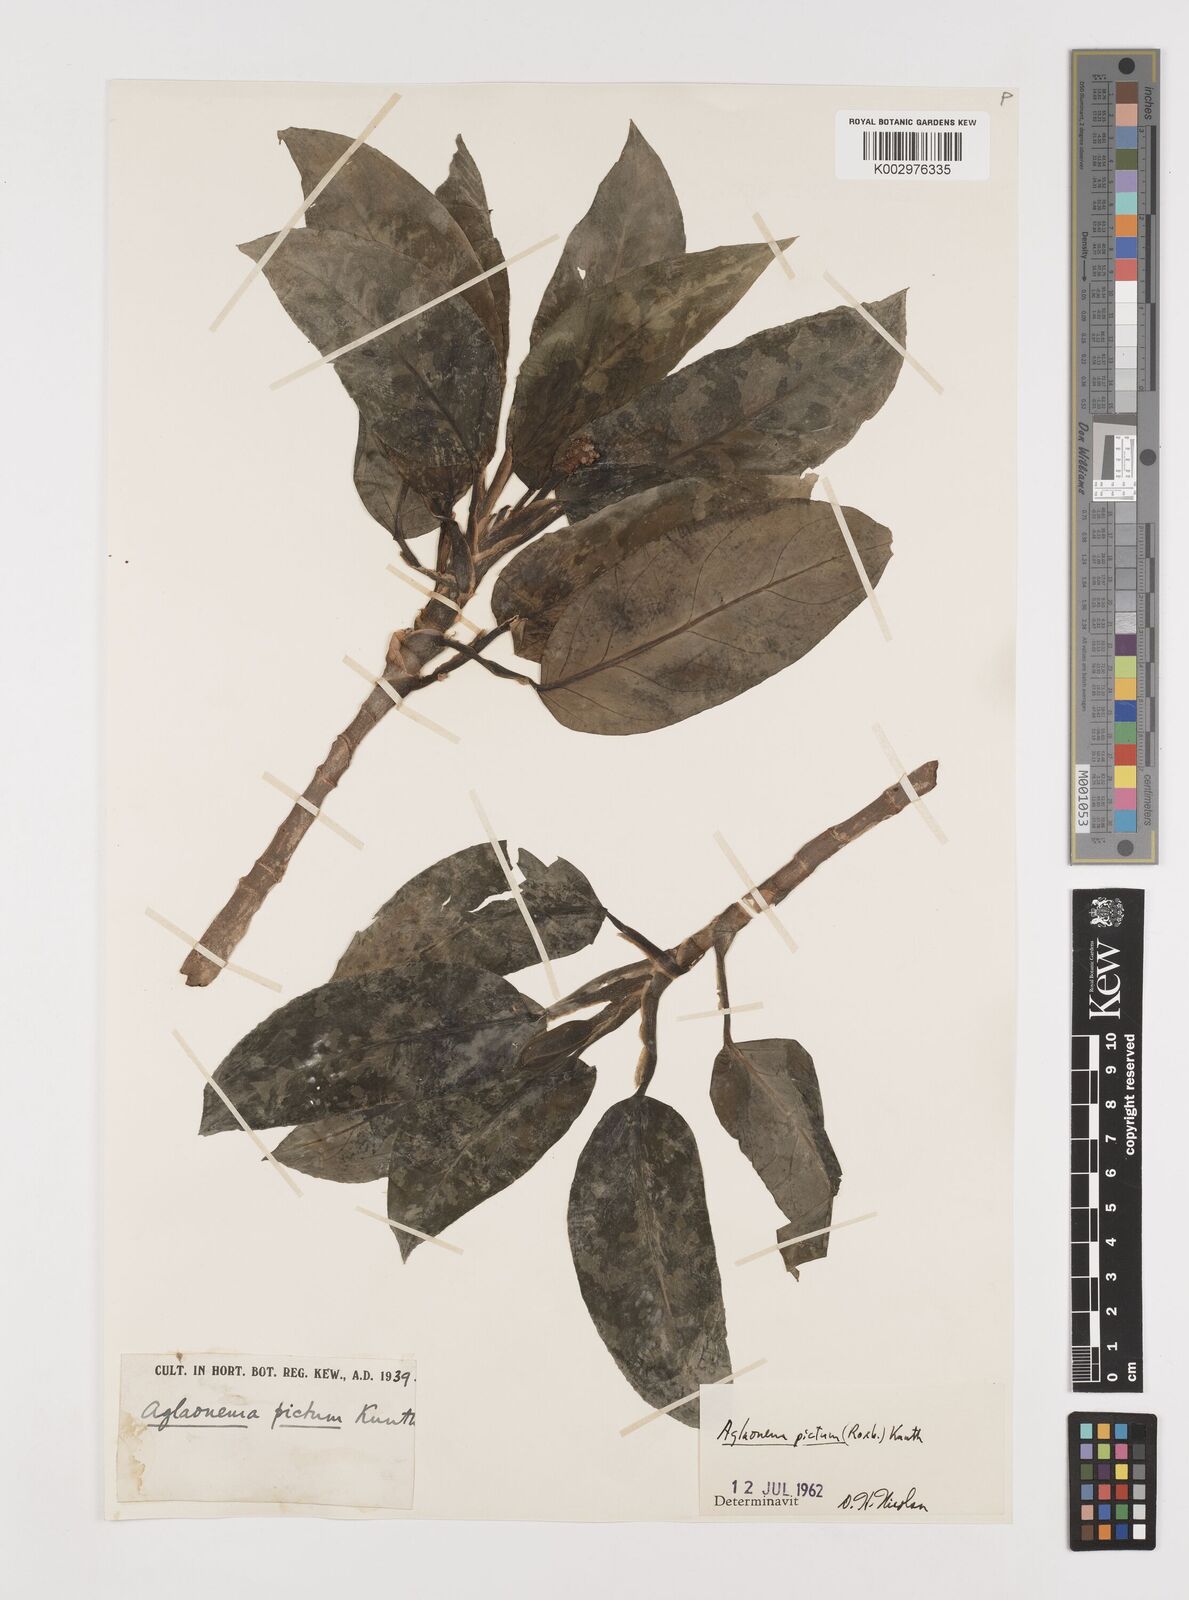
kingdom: Plantae
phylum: Tracheophyta
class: Liliopsida
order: Alismatales
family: Araceae
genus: Aglaonema
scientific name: Aglaonema pictum
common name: Aglaonema aroid
